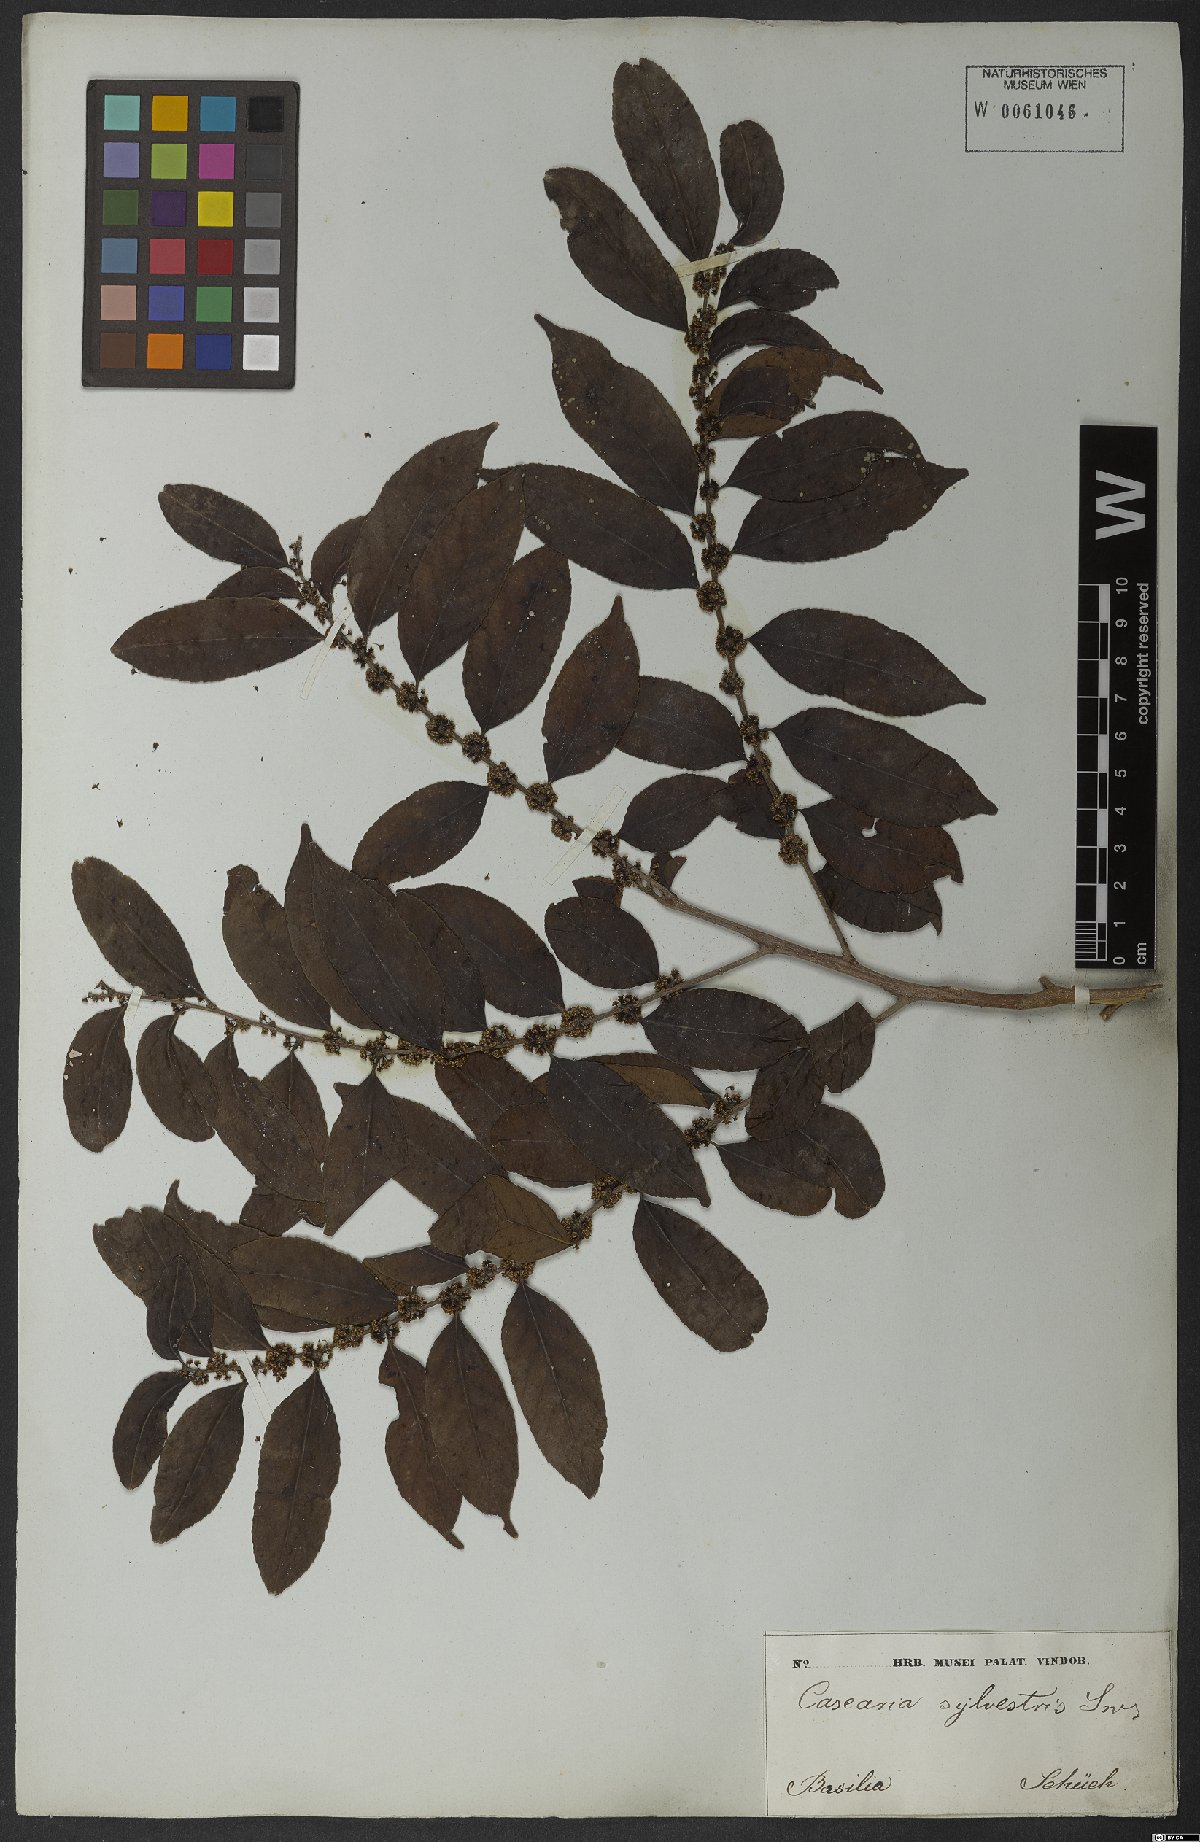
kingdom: Plantae
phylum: Tracheophyta
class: Magnoliopsida
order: Malpighiales
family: Salicaceae
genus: Casearia
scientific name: Casearia sylvestris
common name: Wild sage
